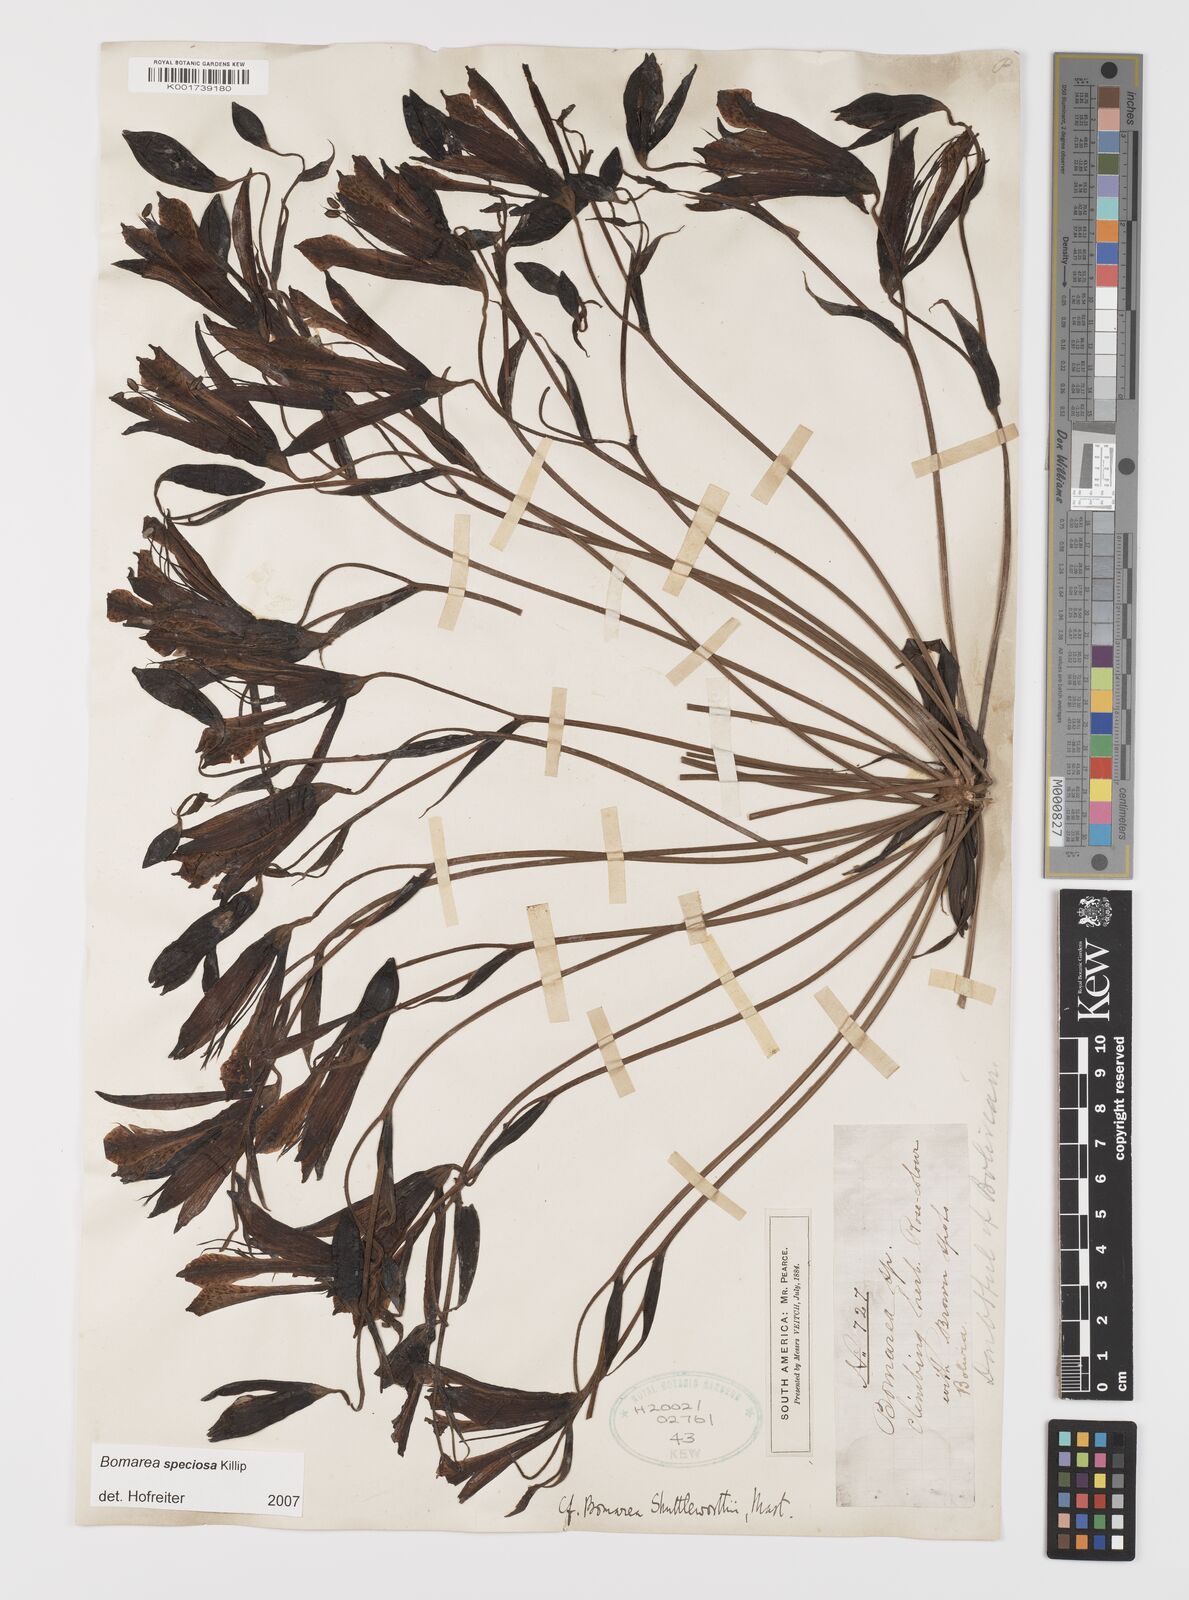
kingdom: Plantae
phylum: Tracheophyta
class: Liliopsida
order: Liliales
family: Alstroemeriaceae
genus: Bomarea
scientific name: Bomarea speciosa
